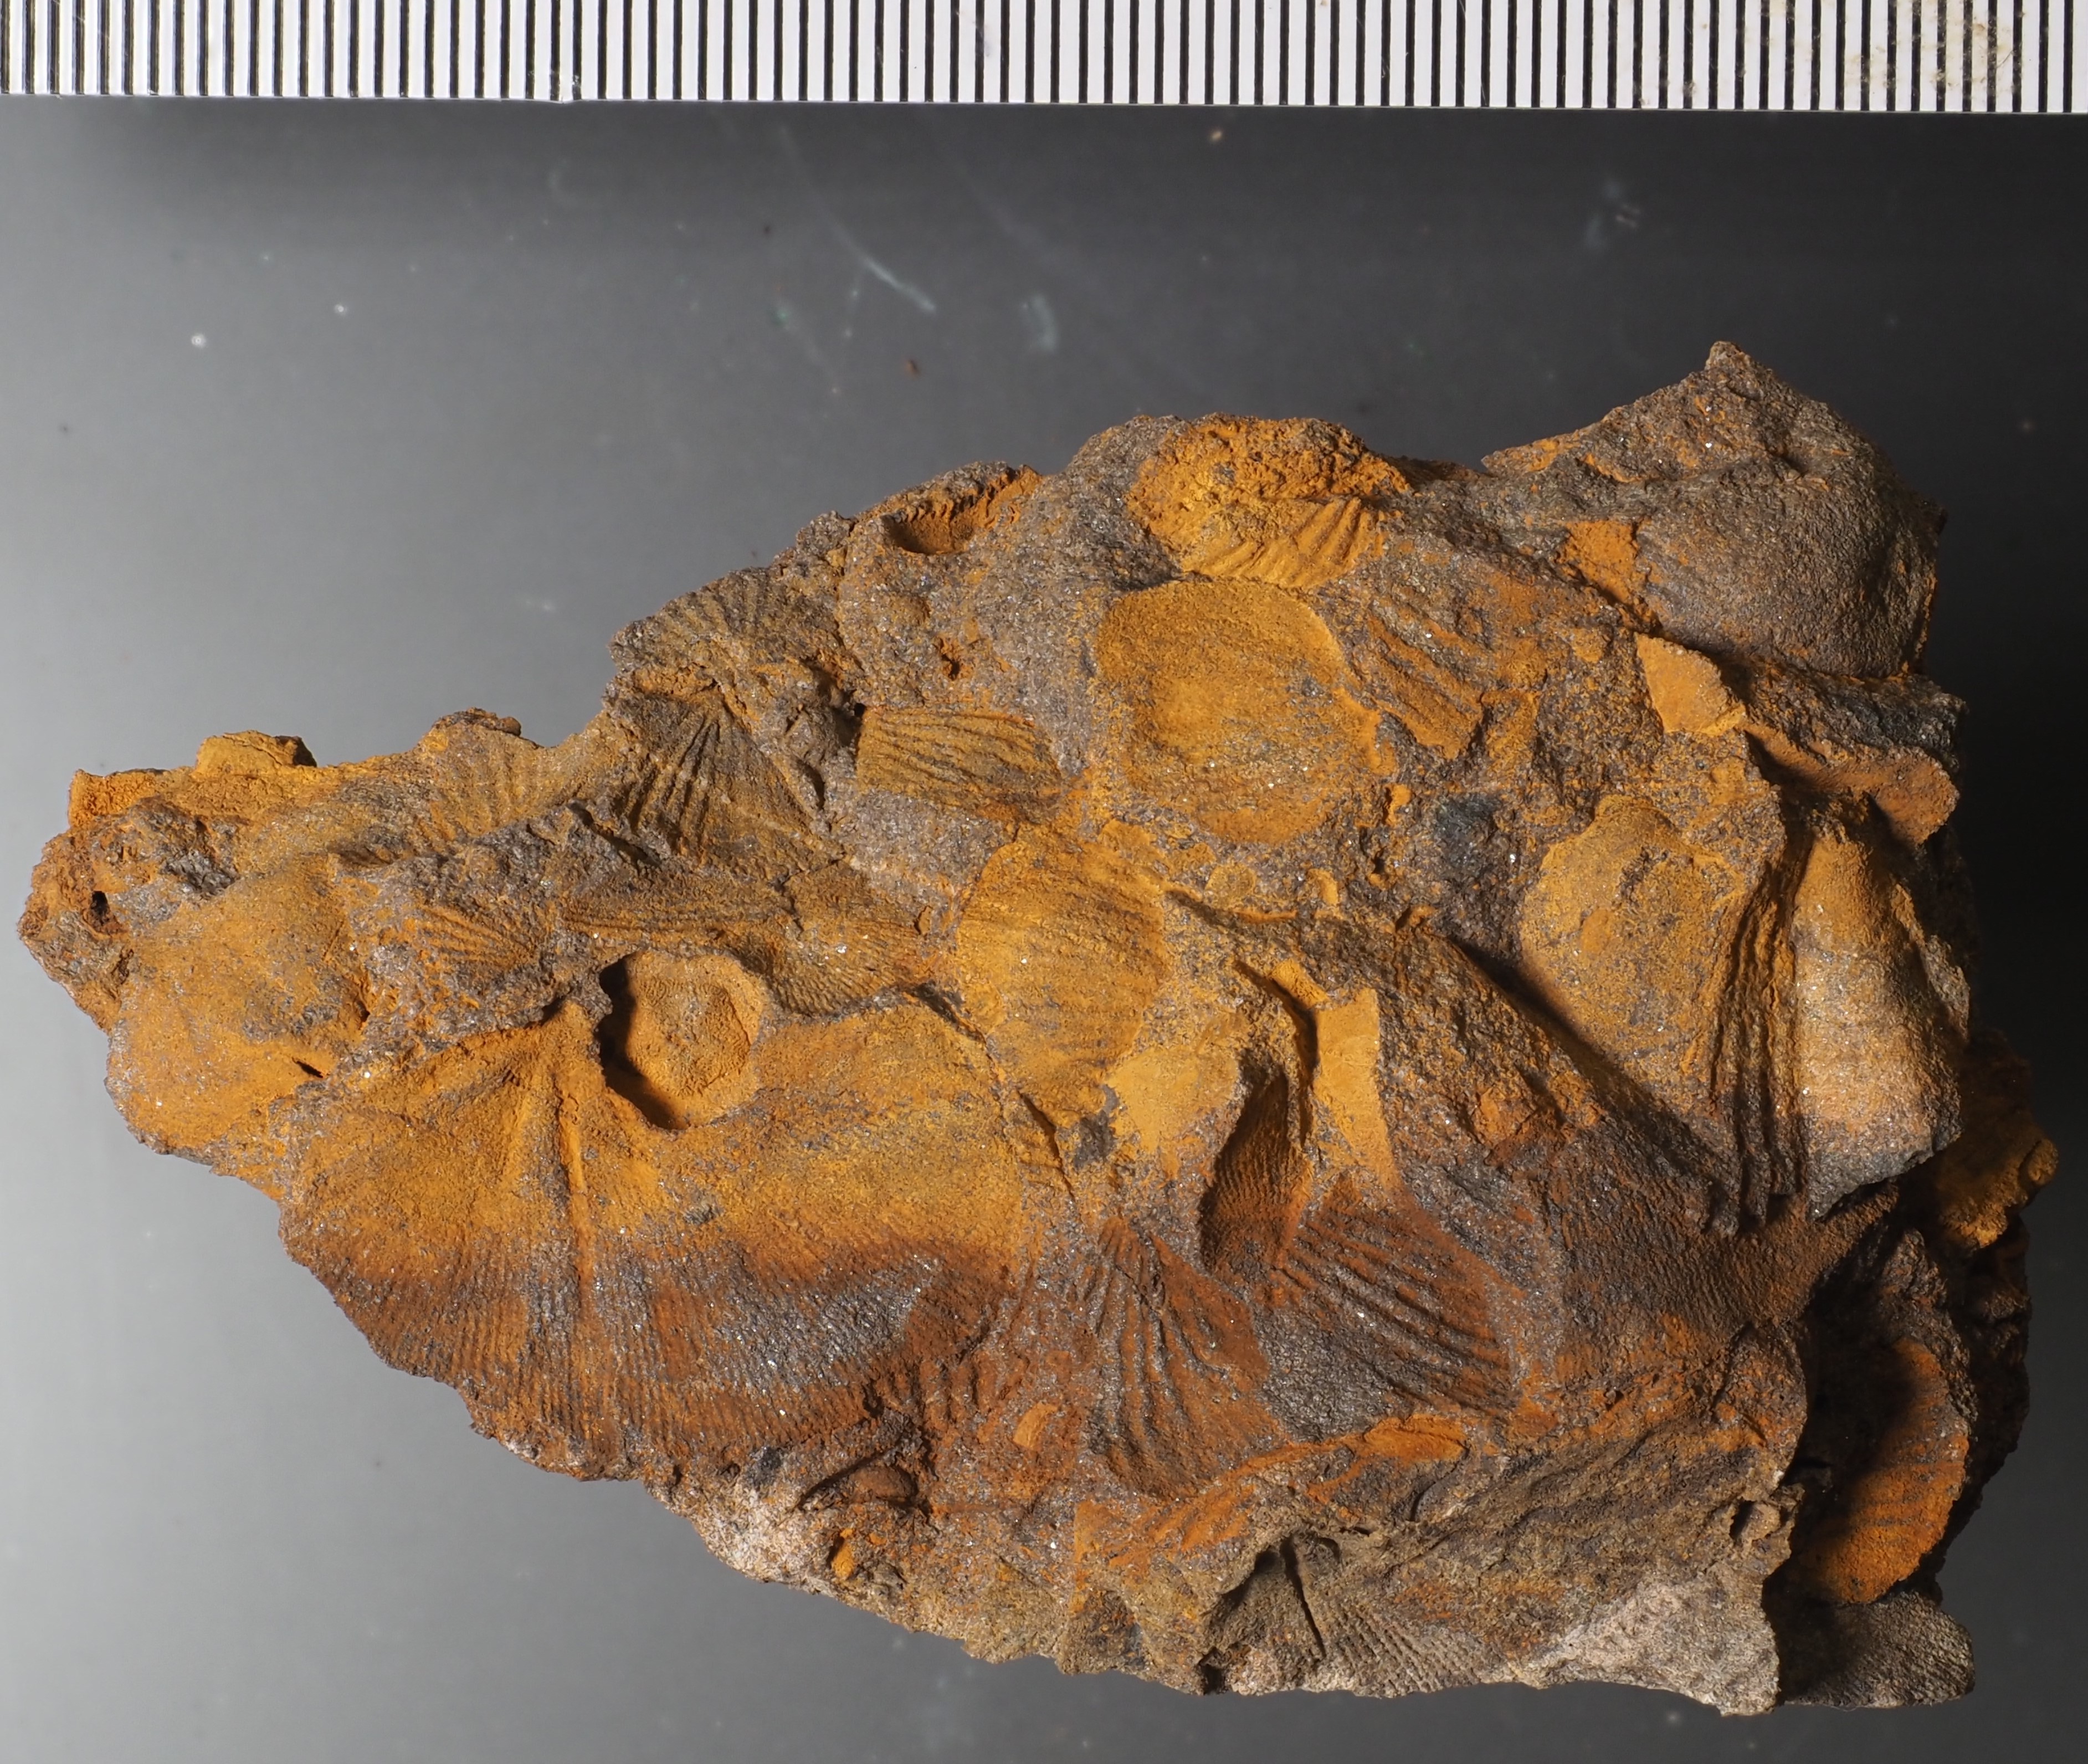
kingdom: Animalia
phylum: Mollusca
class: Bivalvia
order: Ostreida
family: Pterineidae
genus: Leptodesma
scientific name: Leptodesma
